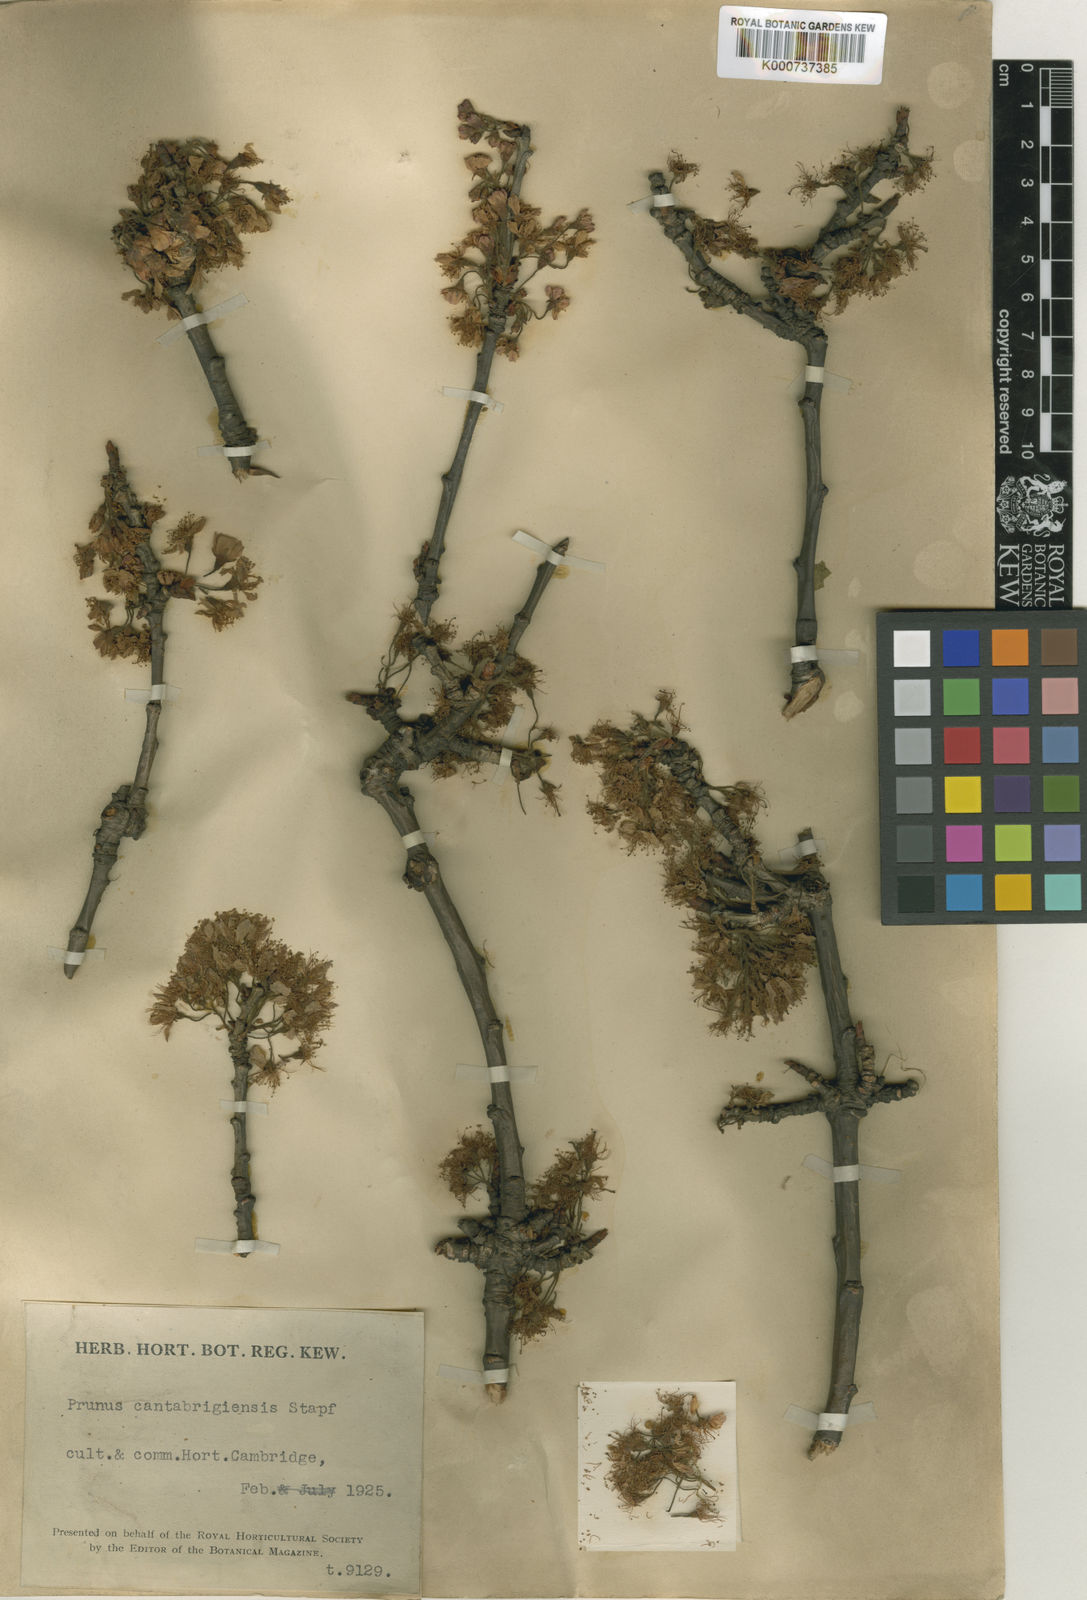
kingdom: Plantae
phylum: Tracheophyta
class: Magnoliopsida
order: Rosales
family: Rosaceae
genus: Prunus
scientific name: Prunus pseudocerasus
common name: Ying tao cherry
